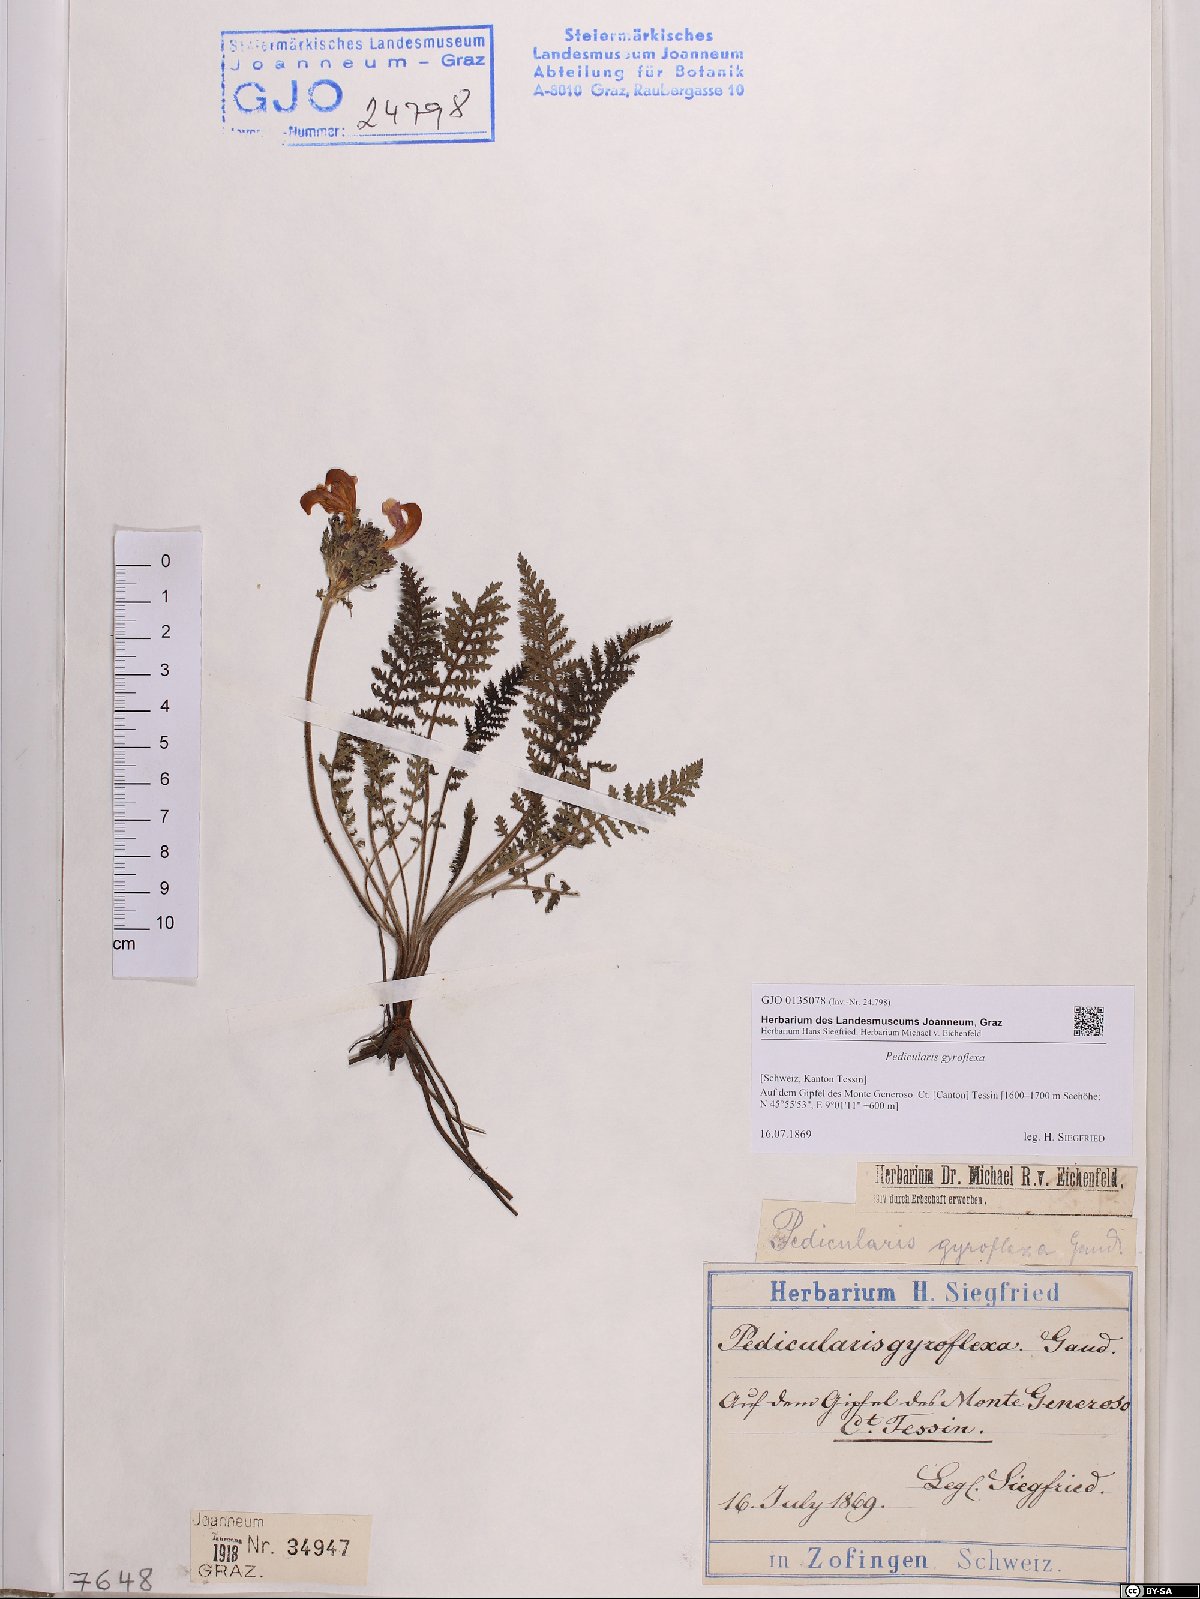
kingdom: Plantae
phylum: Tracheophyta
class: Magnoliopsida
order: Lamiales
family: Orobanchaceae
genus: Pedicularis
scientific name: Pedicularis gyroflexa
